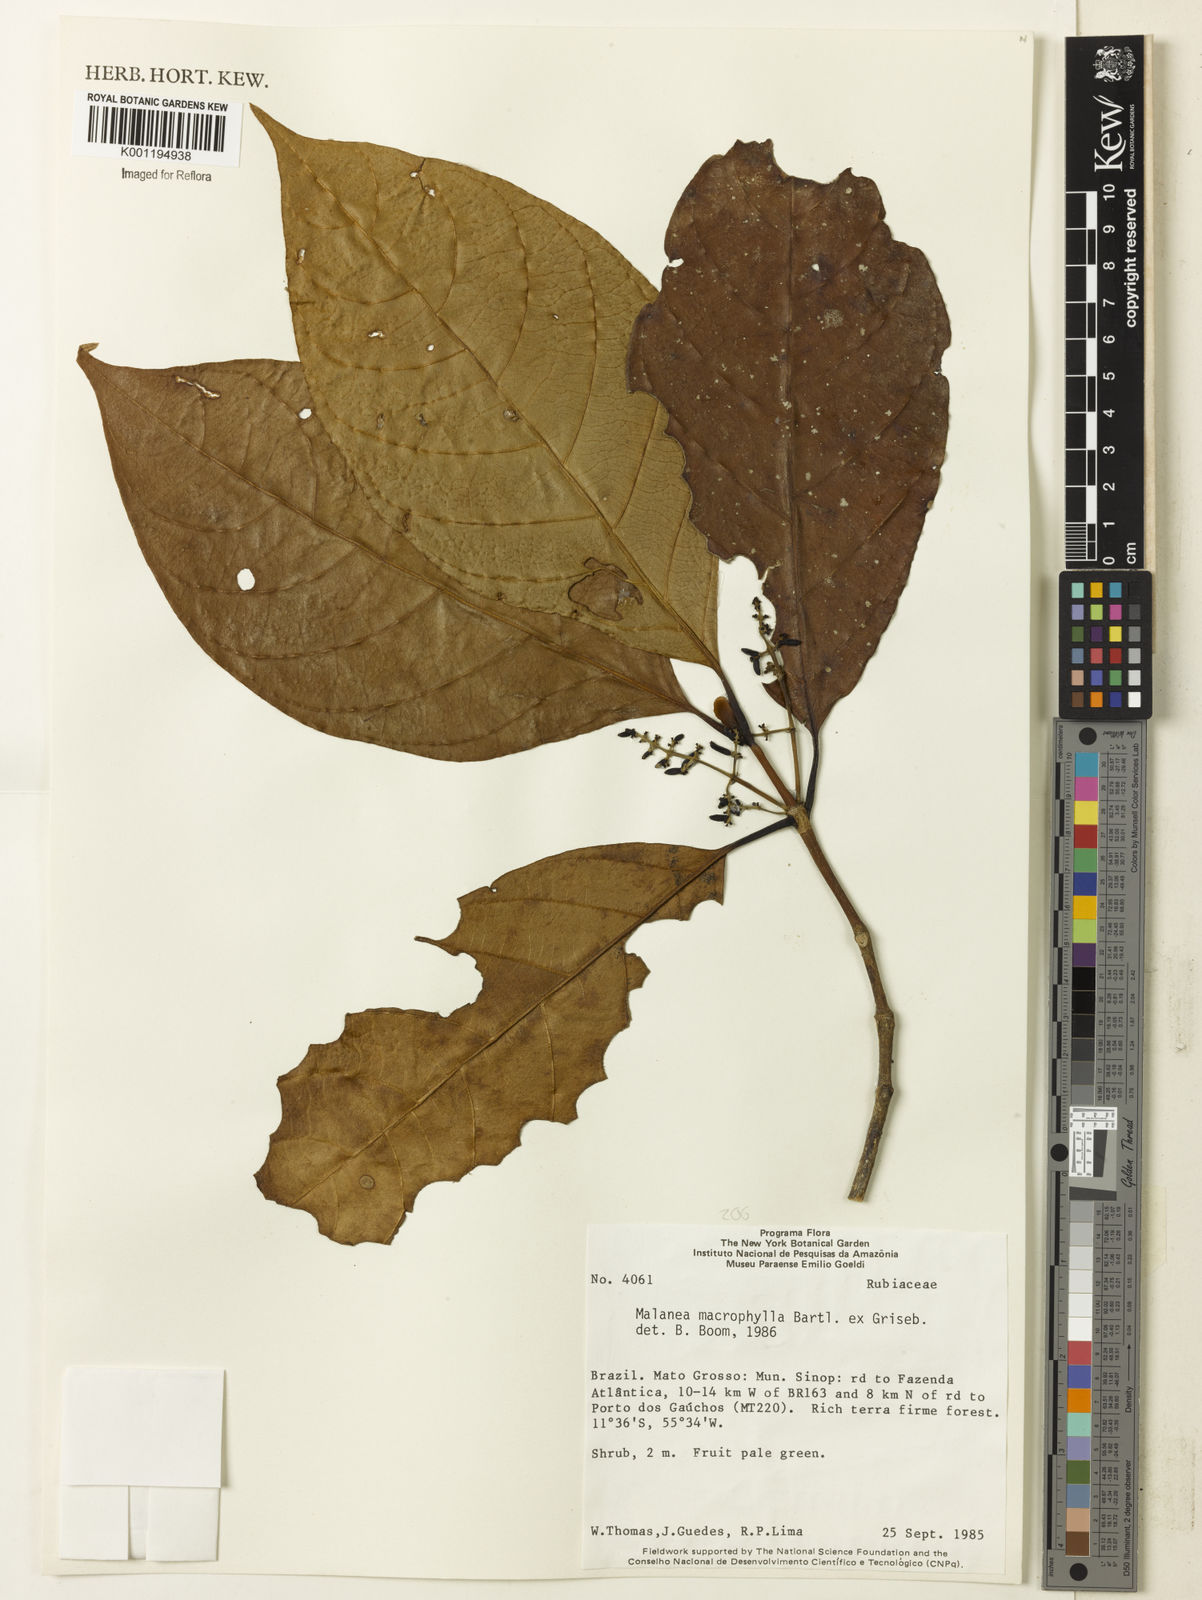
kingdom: Plantae
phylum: Tracheophyta
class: Magnoliopsida
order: Gentianales
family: Rubiaceae
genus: Malanea
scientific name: Malanea glabra
